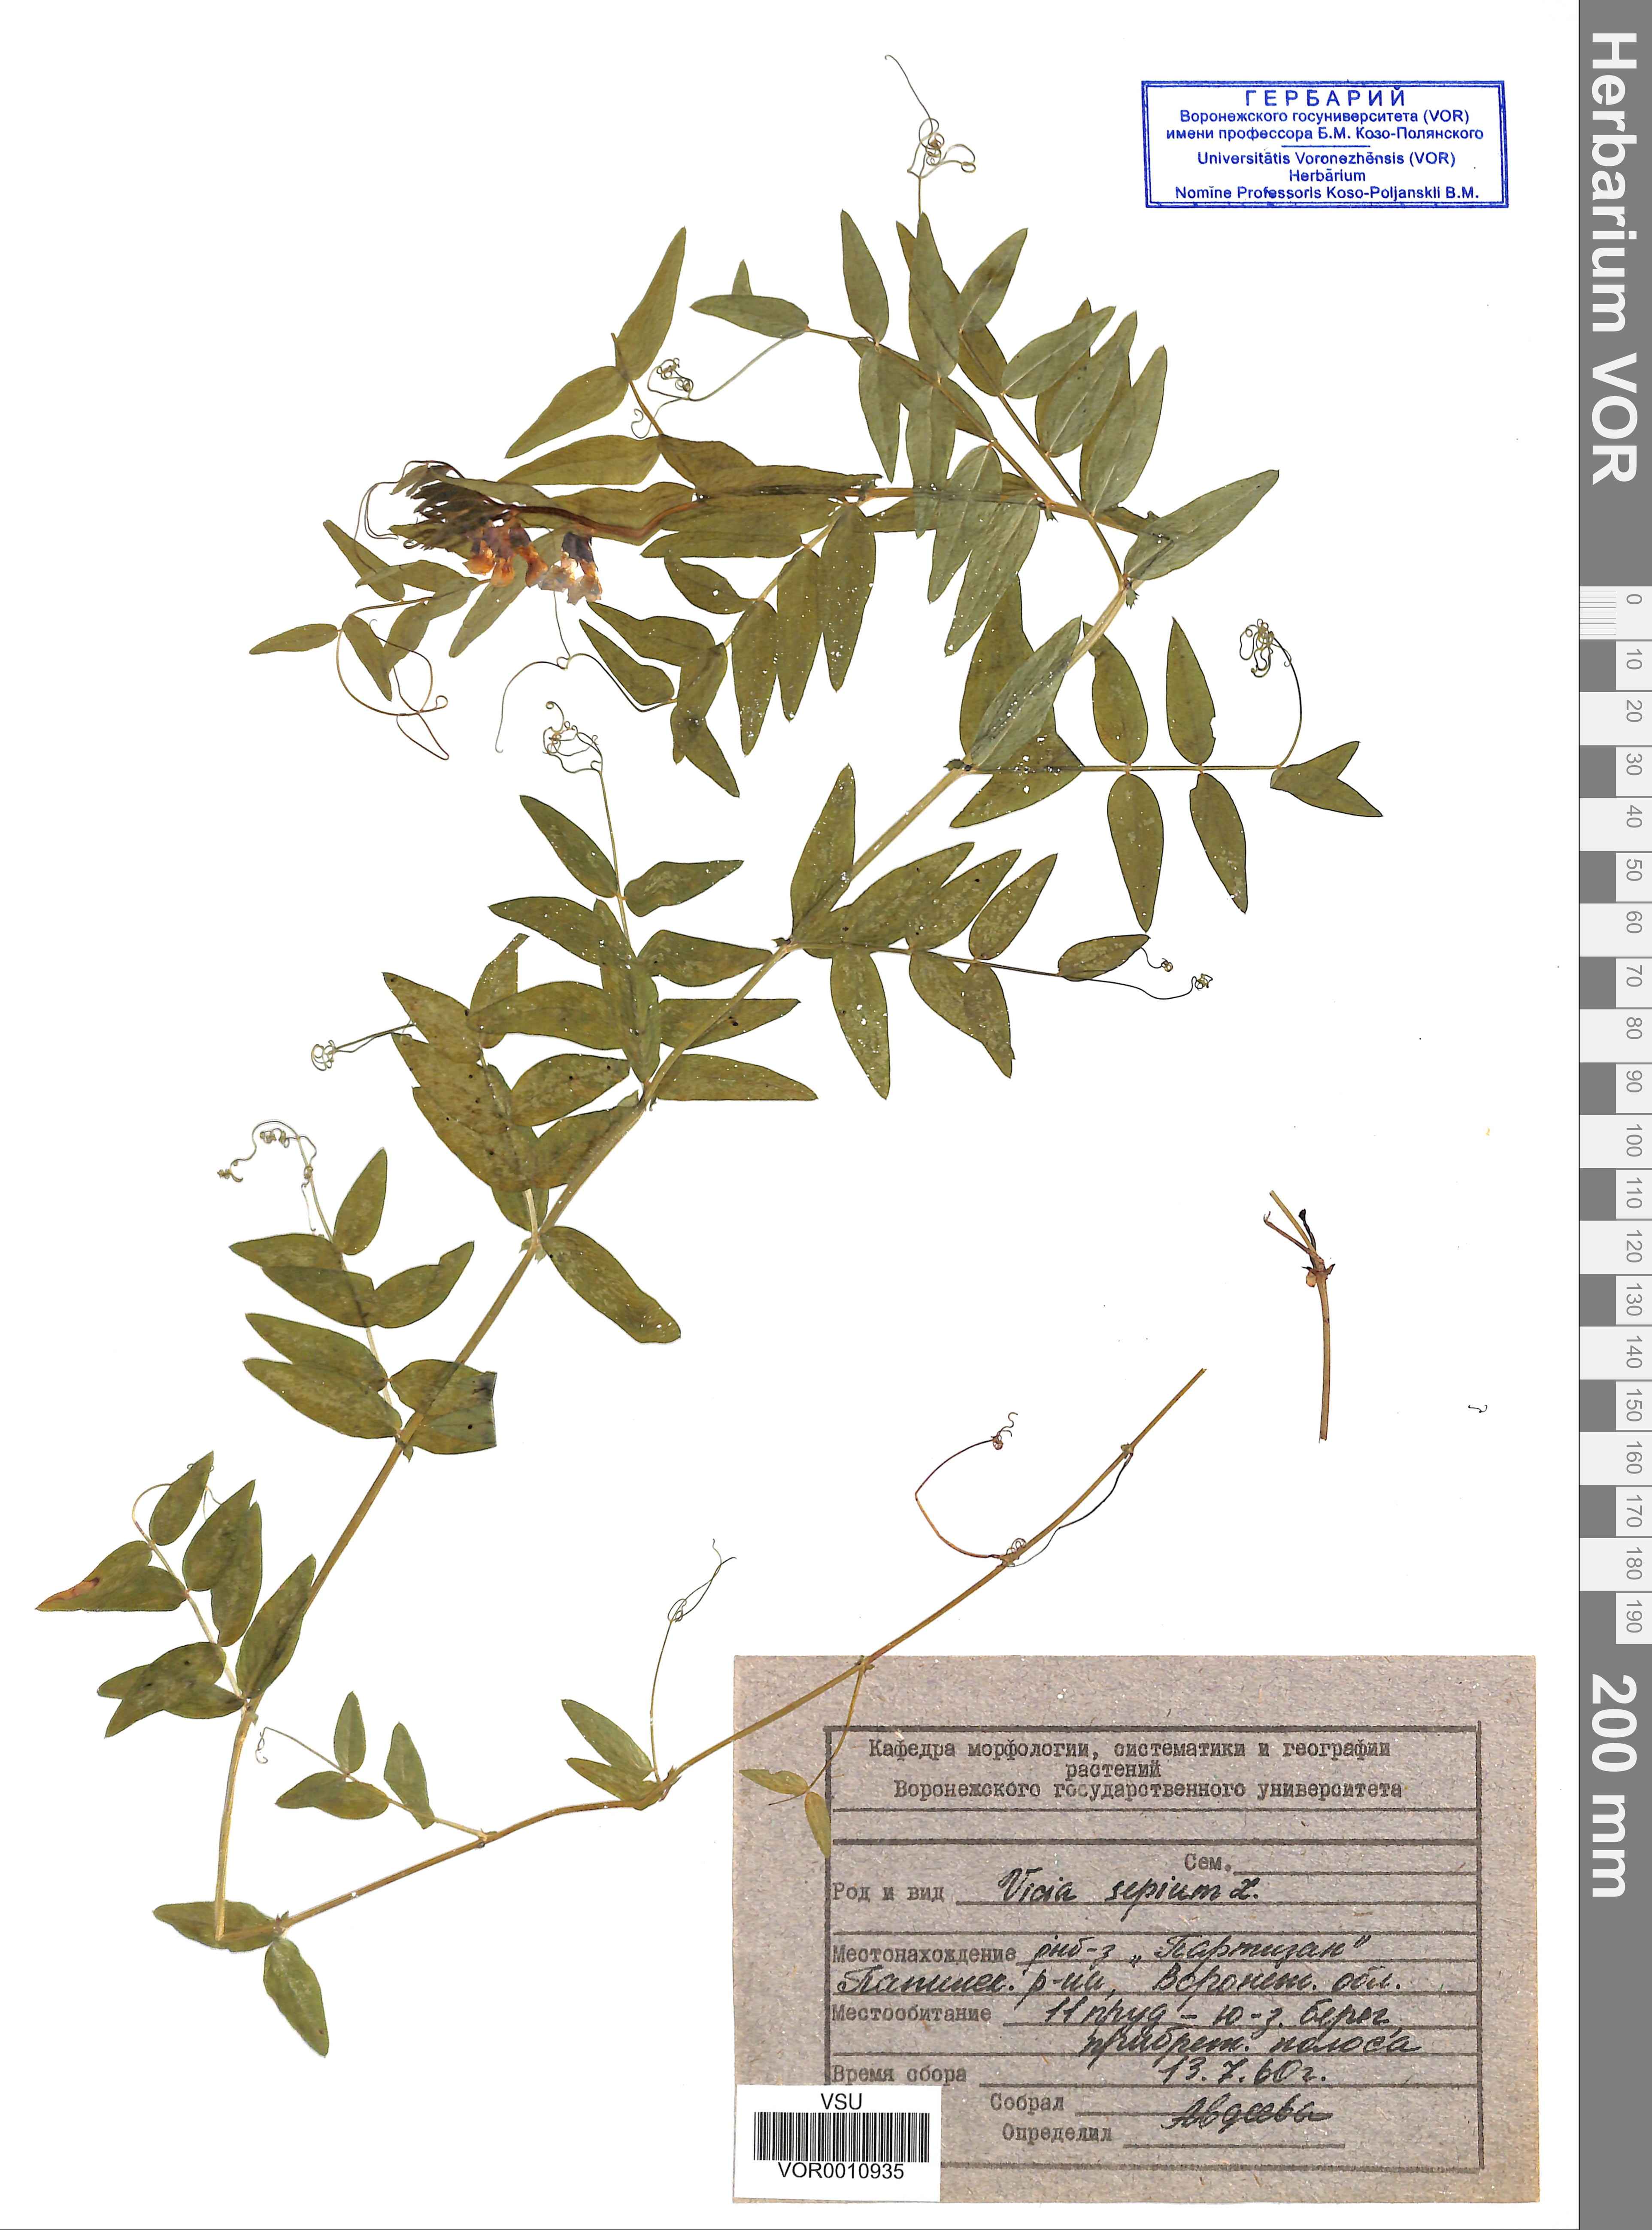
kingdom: Plantae
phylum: Tracheophyta
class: Magnoliopsida
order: Fabales
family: Fabaceae
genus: Vicia
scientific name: Vicia sepium
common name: Bush vetch
